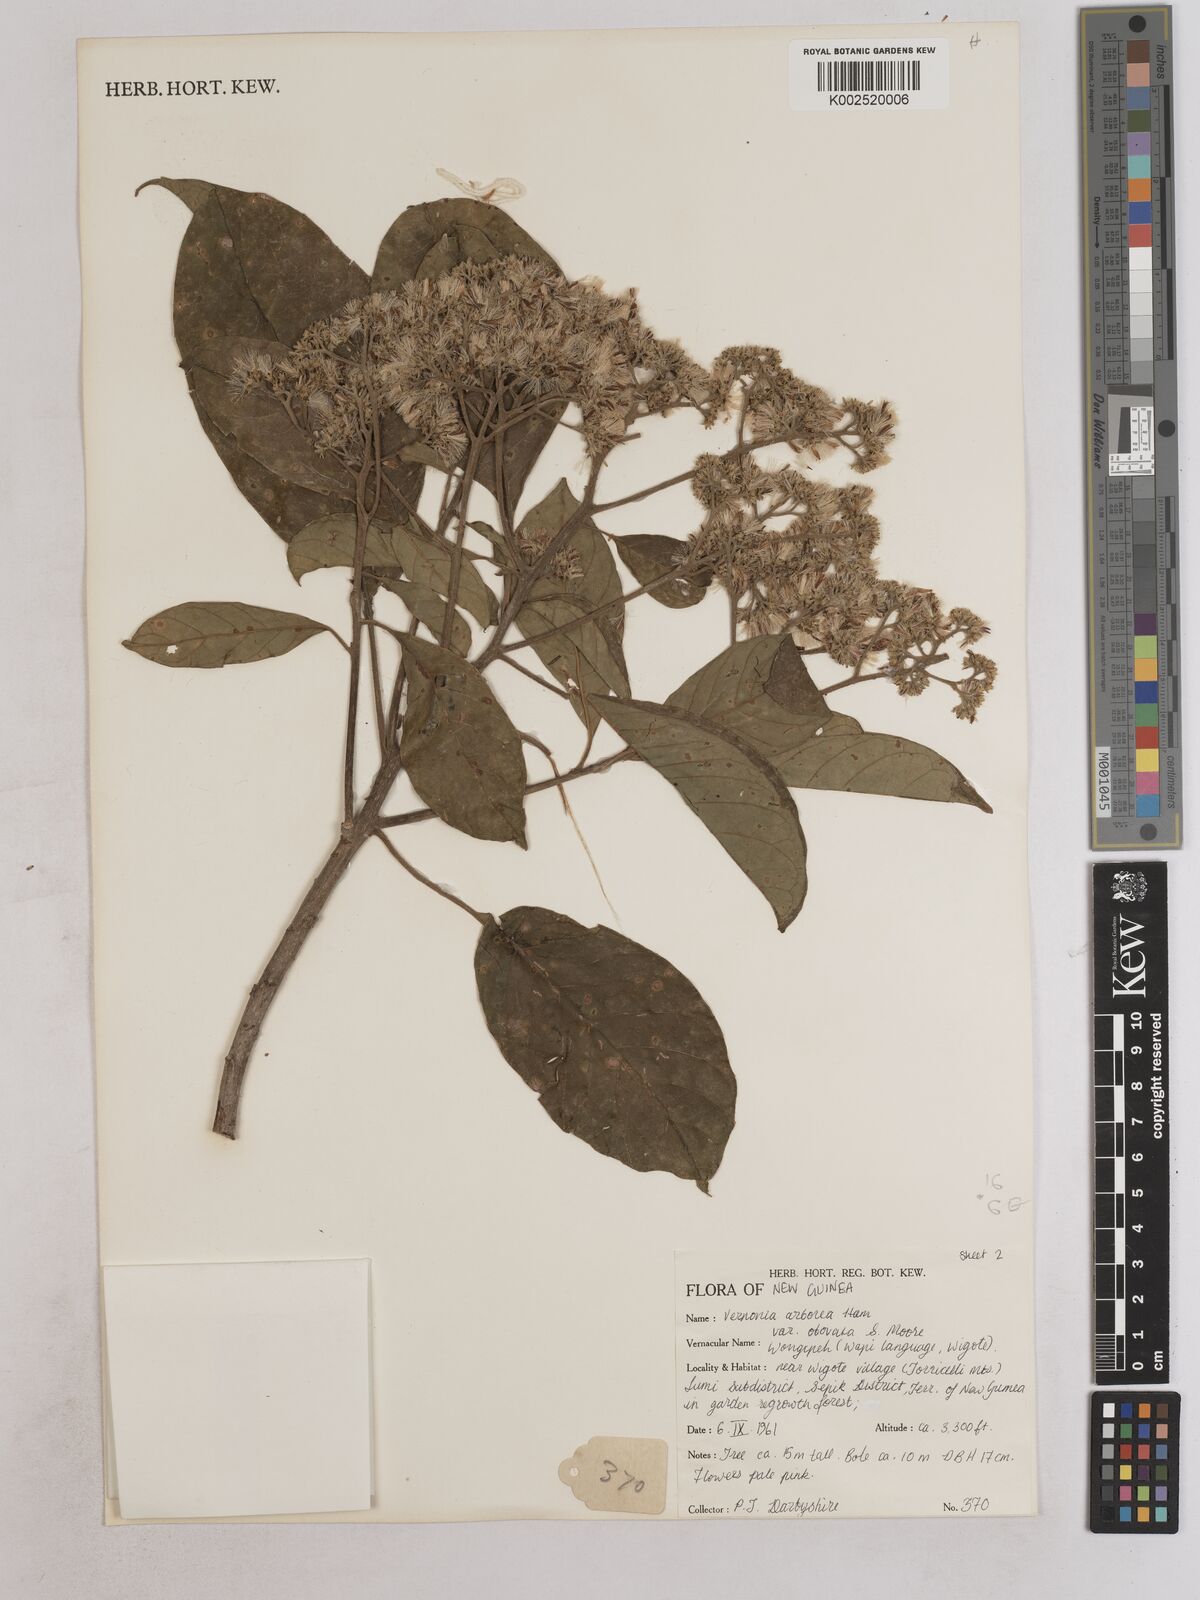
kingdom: Plantae
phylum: Tracheophyta
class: Magnoliopsida
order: Asterales
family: Asteraceae
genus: Strobocalyx
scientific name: Strobocalyx arborea
